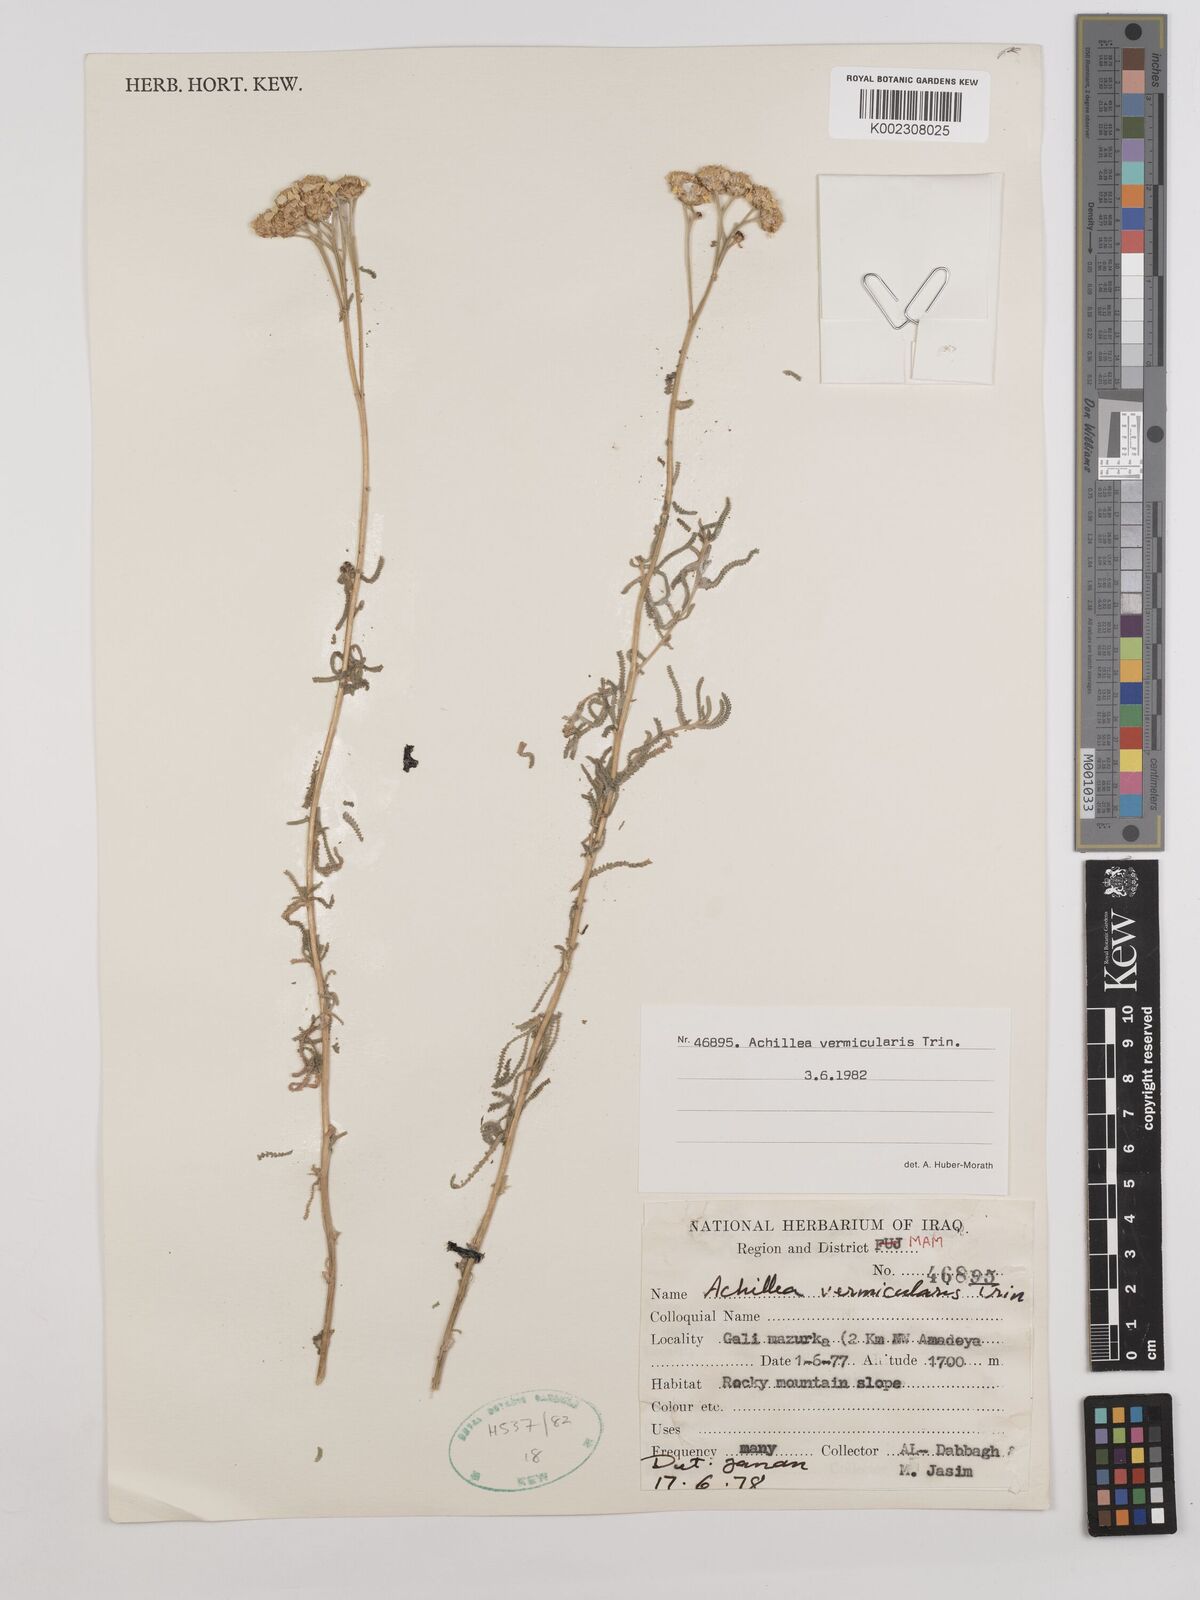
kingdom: Plantae
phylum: Tracheophyta
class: Magnoliopsida
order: Asterales
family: Asteraceae
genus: Achillea
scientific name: Achillea vermicularis
